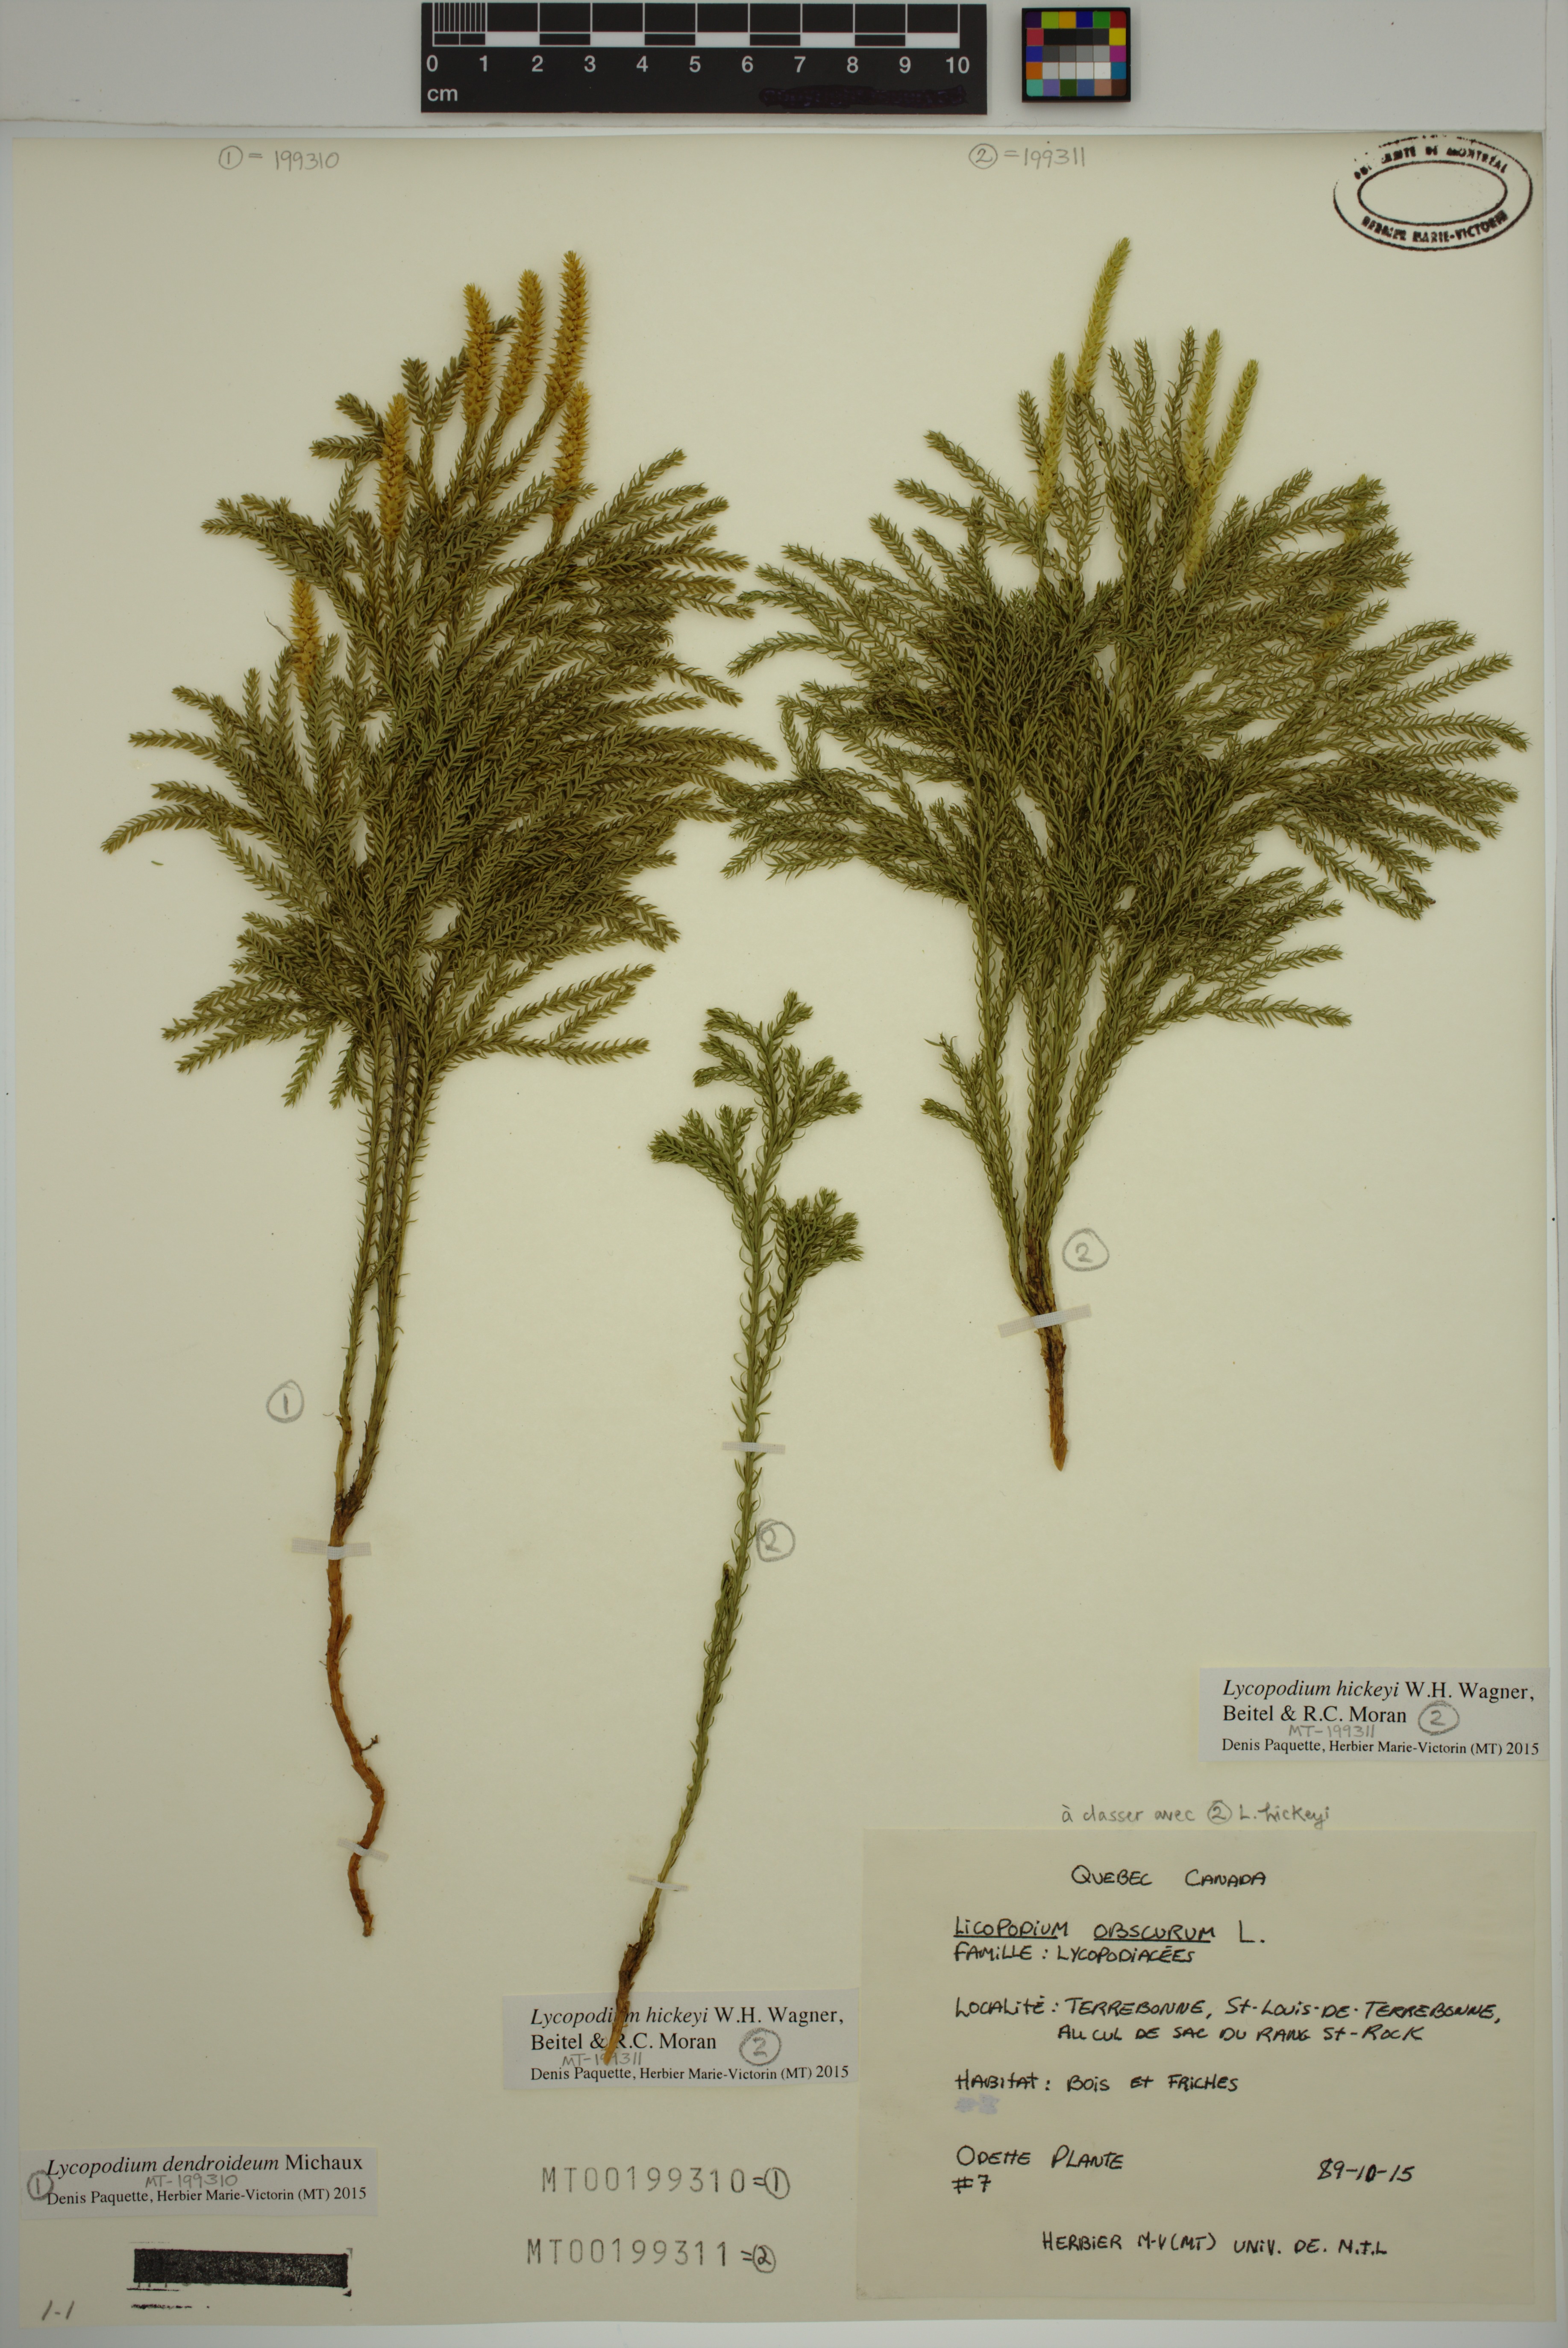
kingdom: Plantae
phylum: Tracheophyta
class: Lycopodiopsida
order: Lycopodiales
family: Lycopodiaceae
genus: Dendrolycopodium
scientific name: Dendrolycopodium dendroideum
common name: Northern tree-clubmoss
